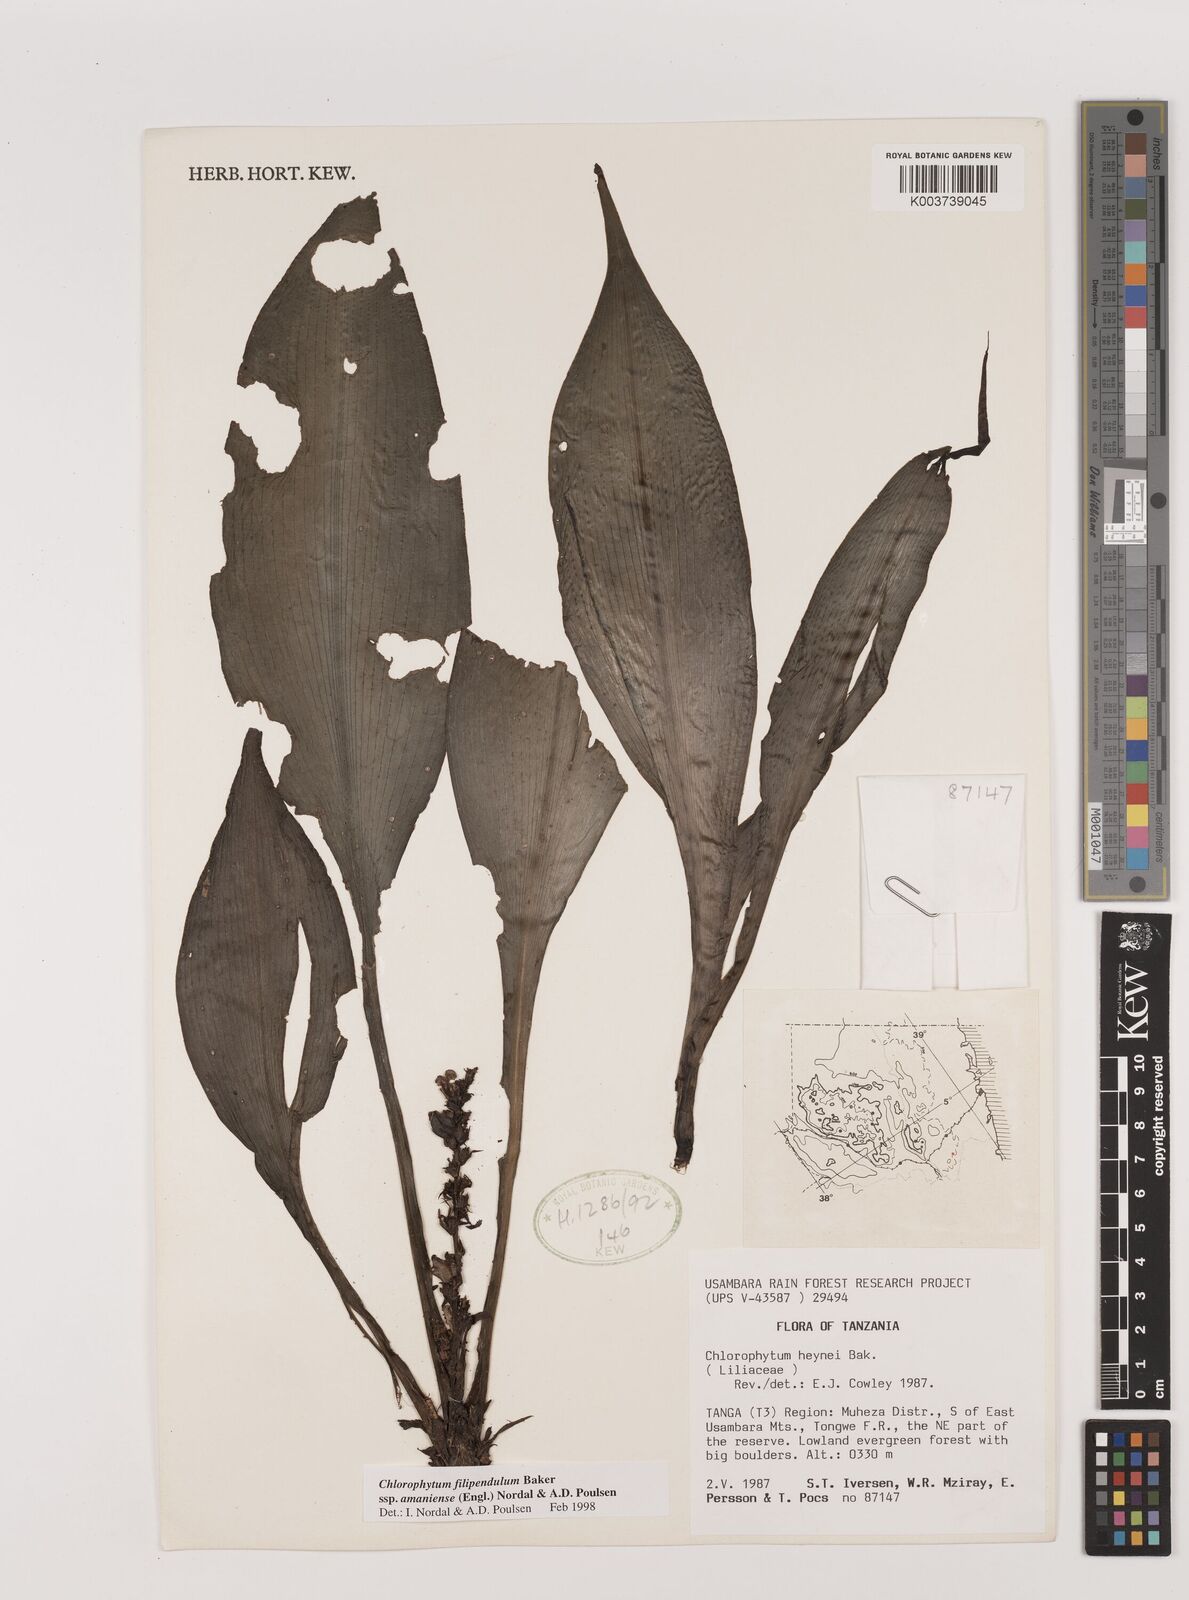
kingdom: Plantae
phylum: Tracheophyta
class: Liliopsida
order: Asparagales
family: Asparagaceae
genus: Chlorophytum
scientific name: Chlorophytum filipendulum
